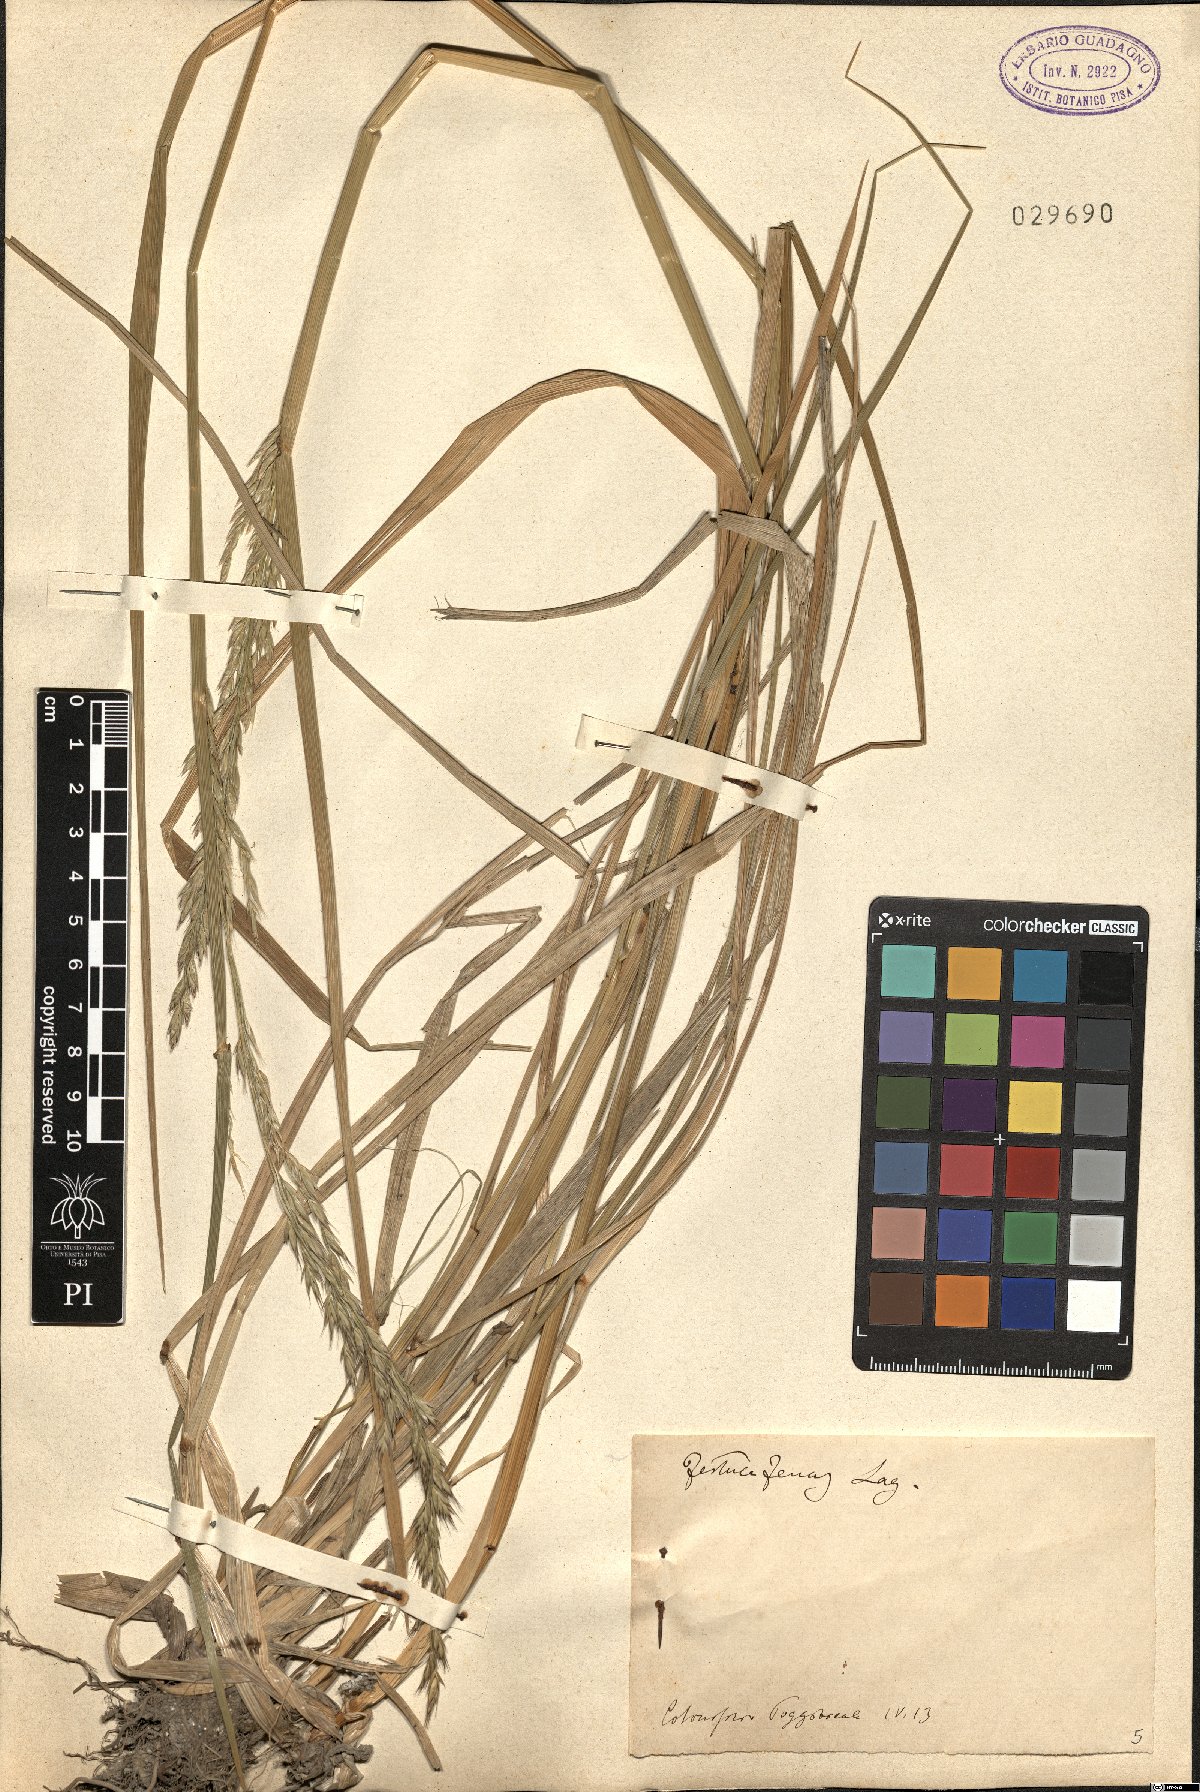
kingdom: Plantae
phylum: Tracheophyta
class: Liliopsida
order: Poales
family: Poaceae
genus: Lolium
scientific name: Lolium interruptum
